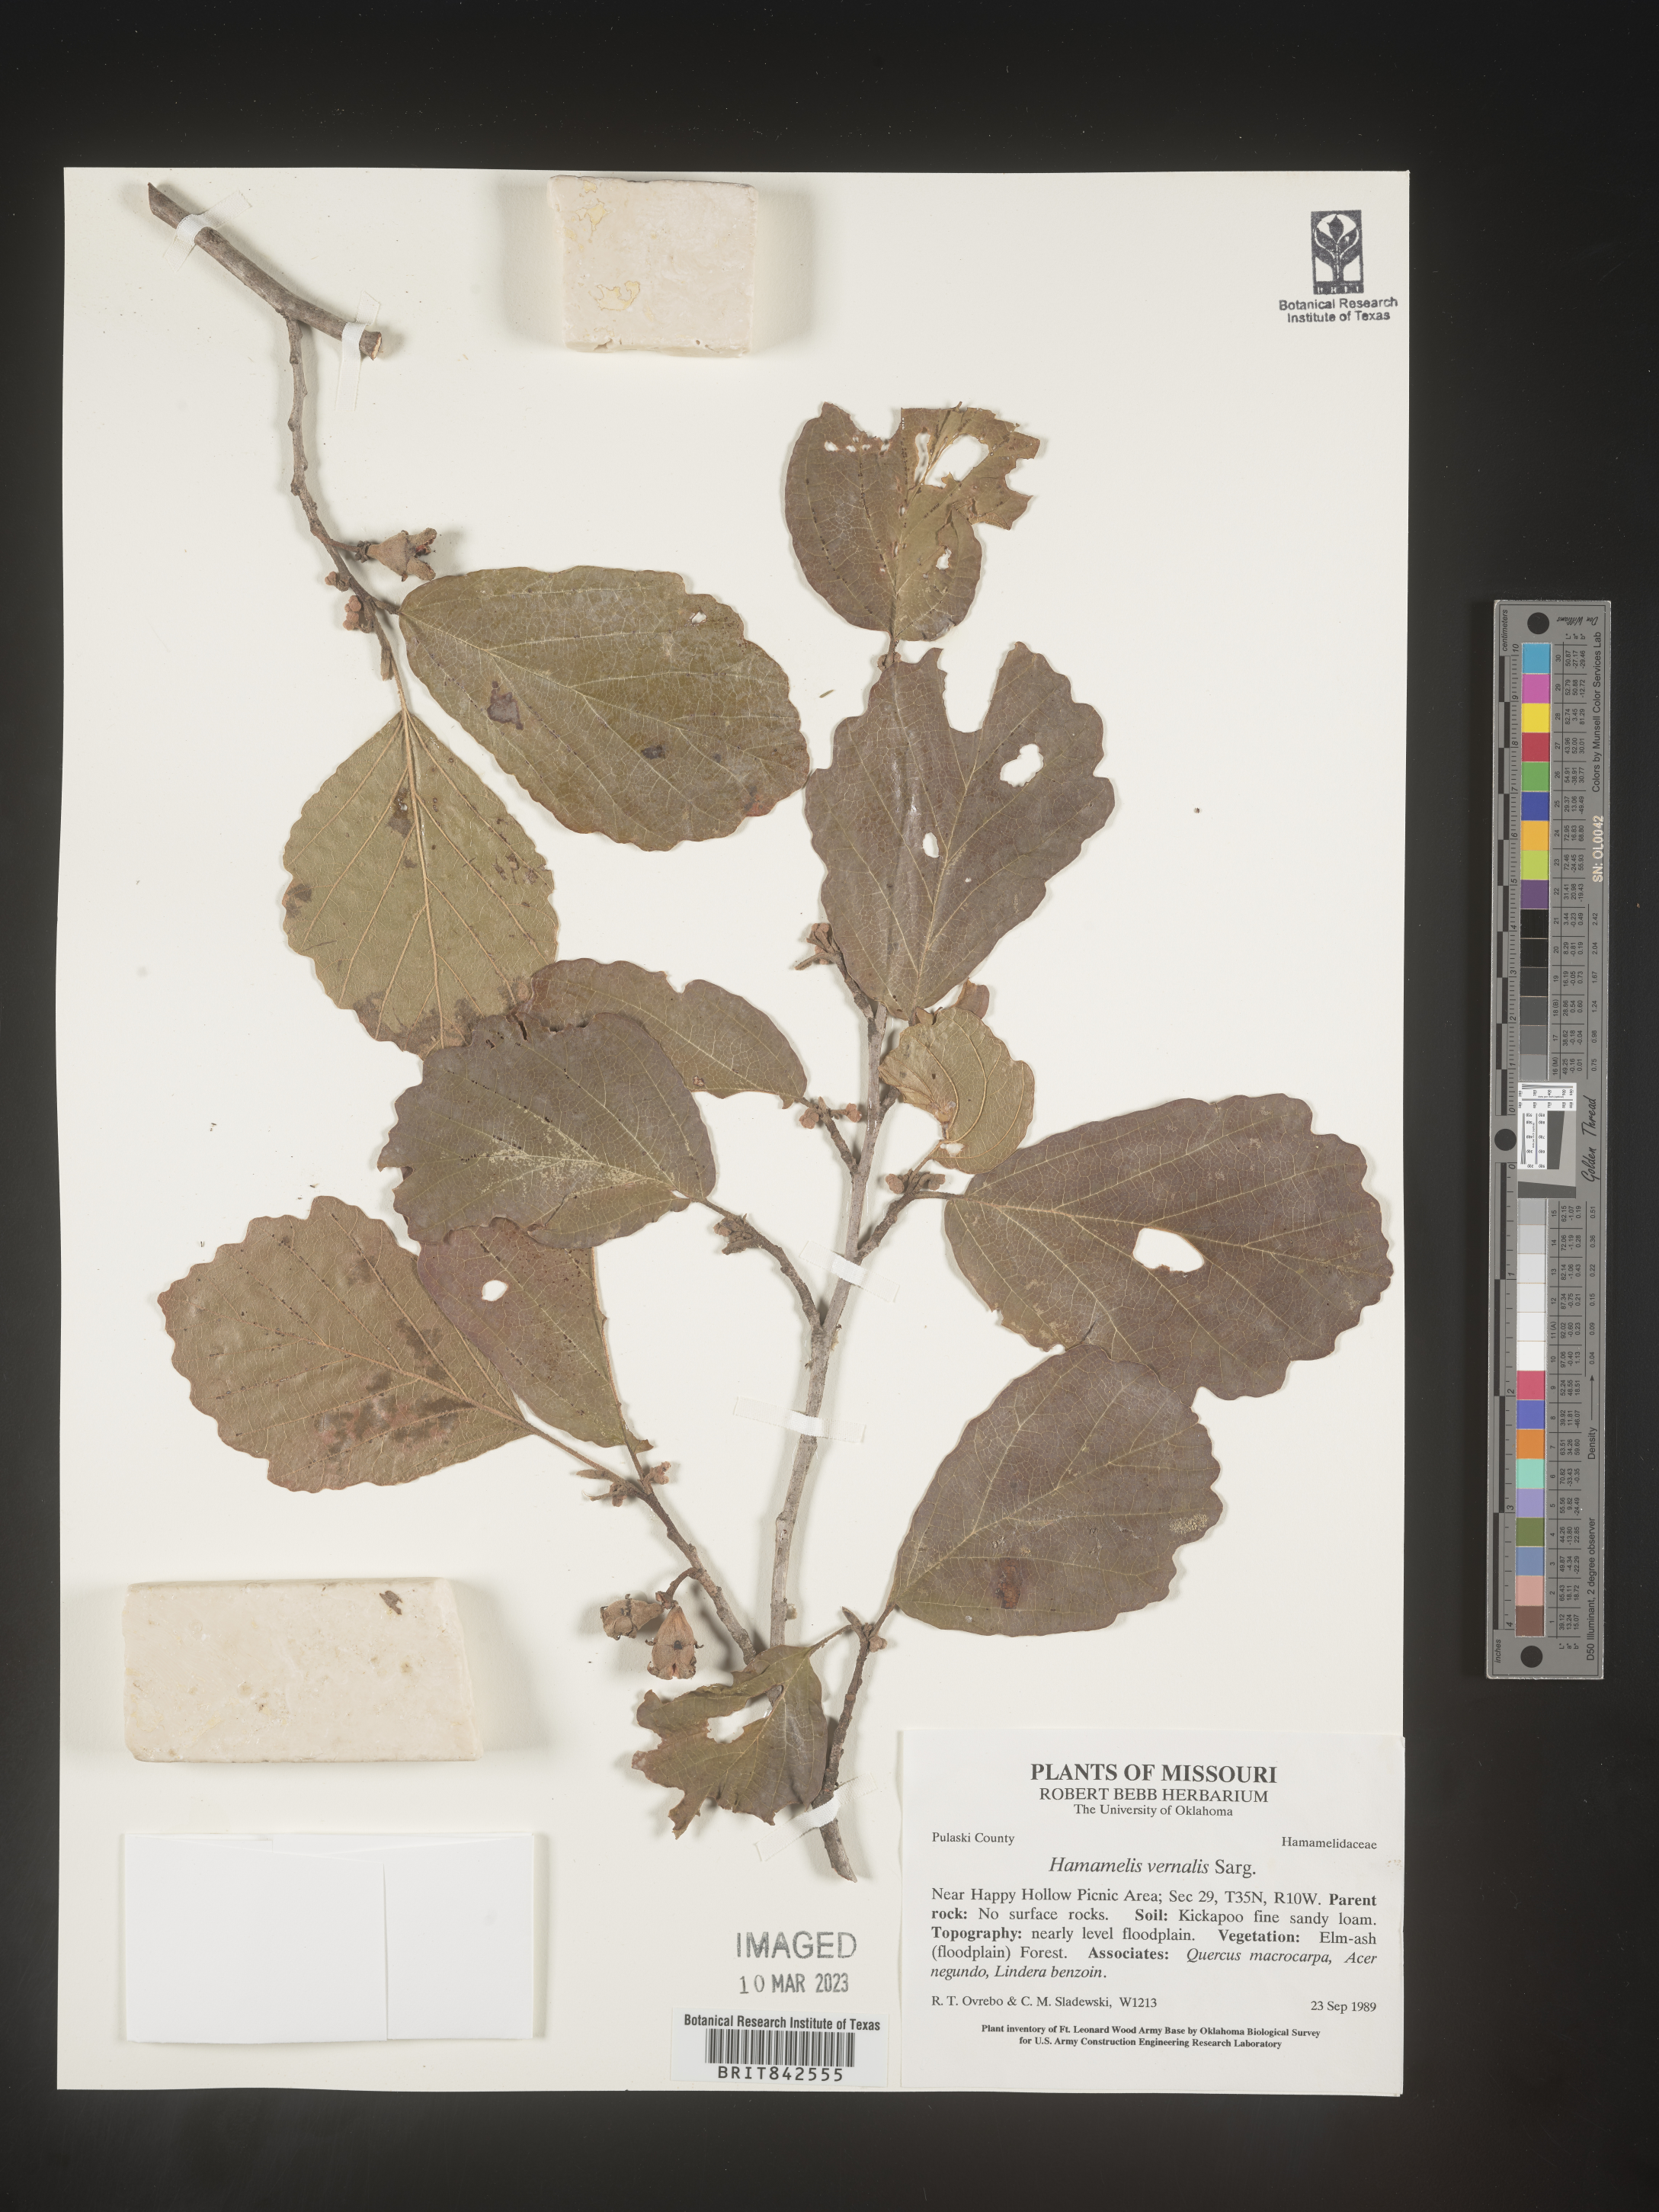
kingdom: Plantae
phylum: Tracheophyta
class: Magnoliopsida
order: Saxifragales
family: Hamamelidaceae
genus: Hamamelis
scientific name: Hamamelis vernalis
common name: Ozark witch-hazel
